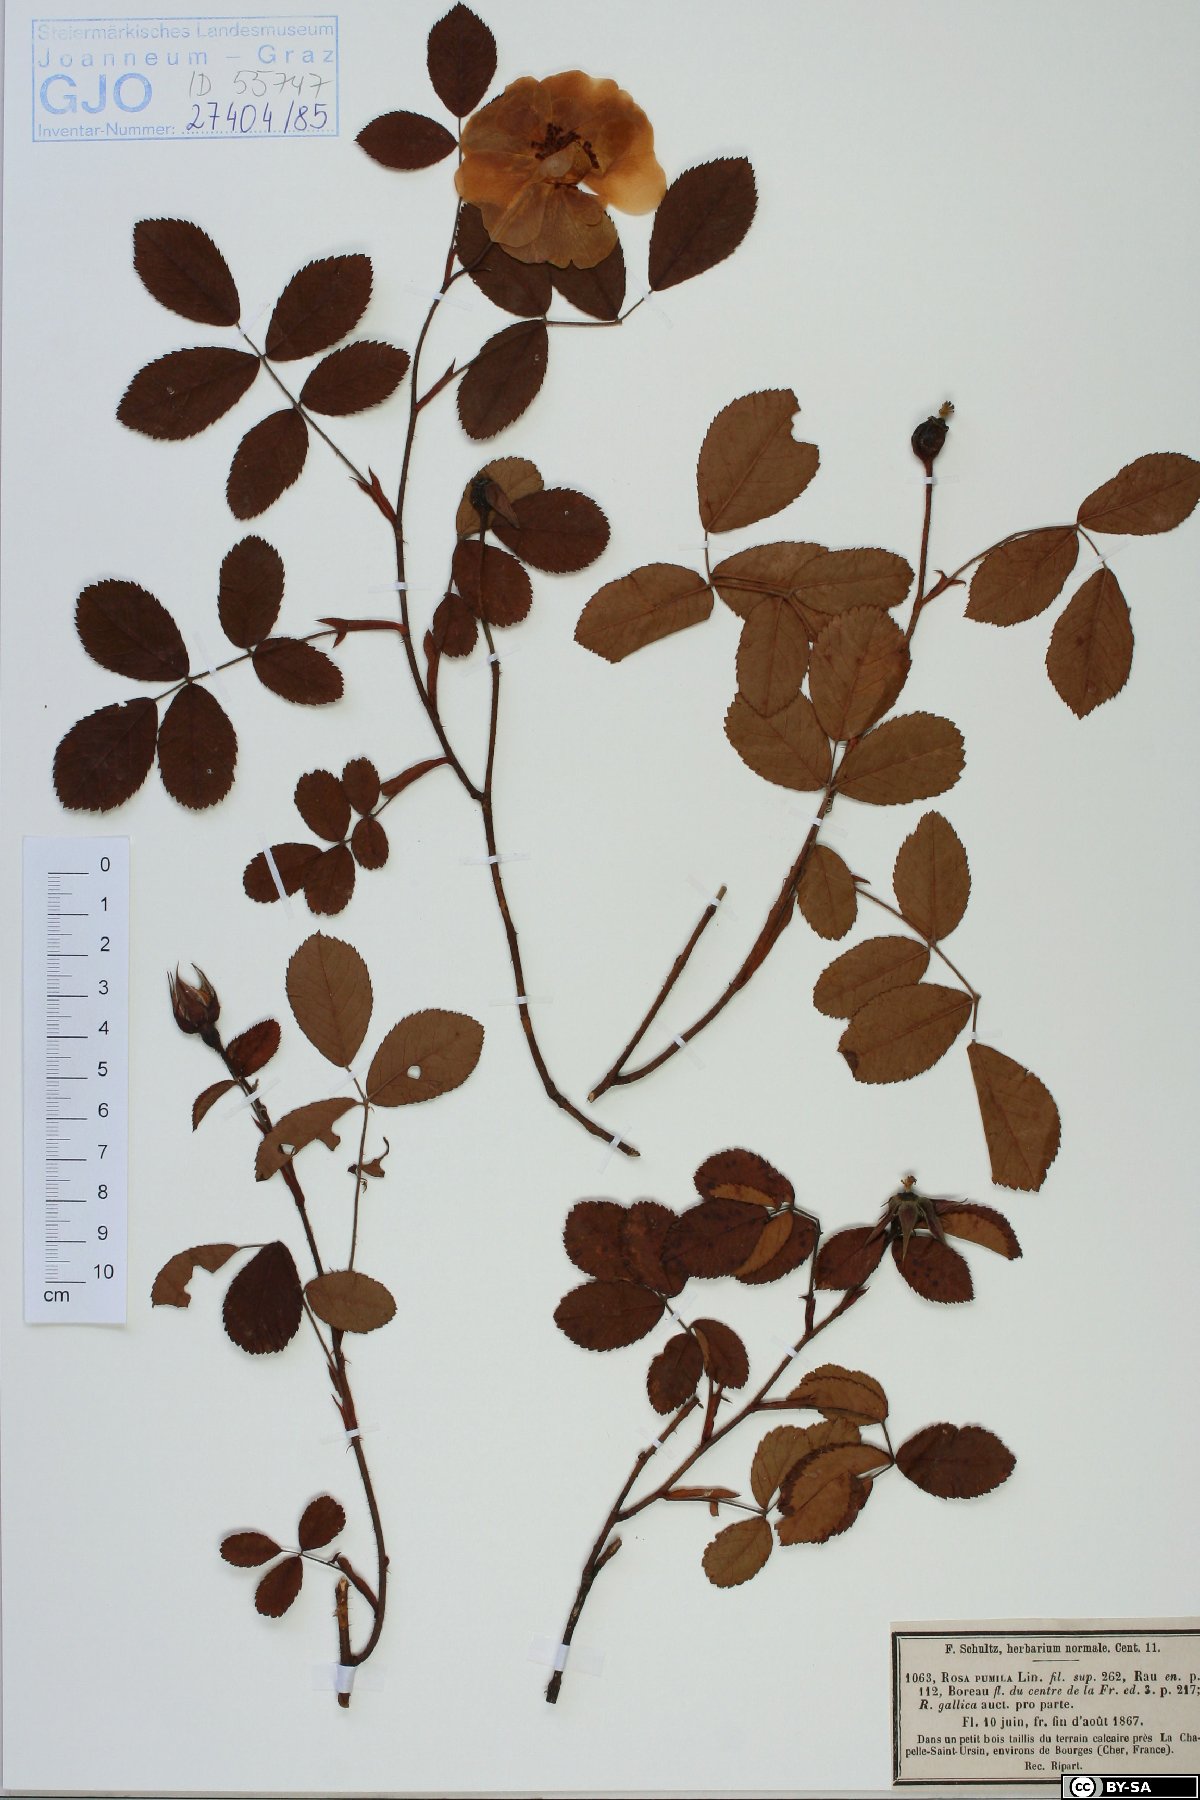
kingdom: Plantae
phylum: Tracheophyta
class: Magnoliopsida
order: Rosales
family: Rosaceae
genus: Rosa
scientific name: Rosa gallica
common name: French rose
